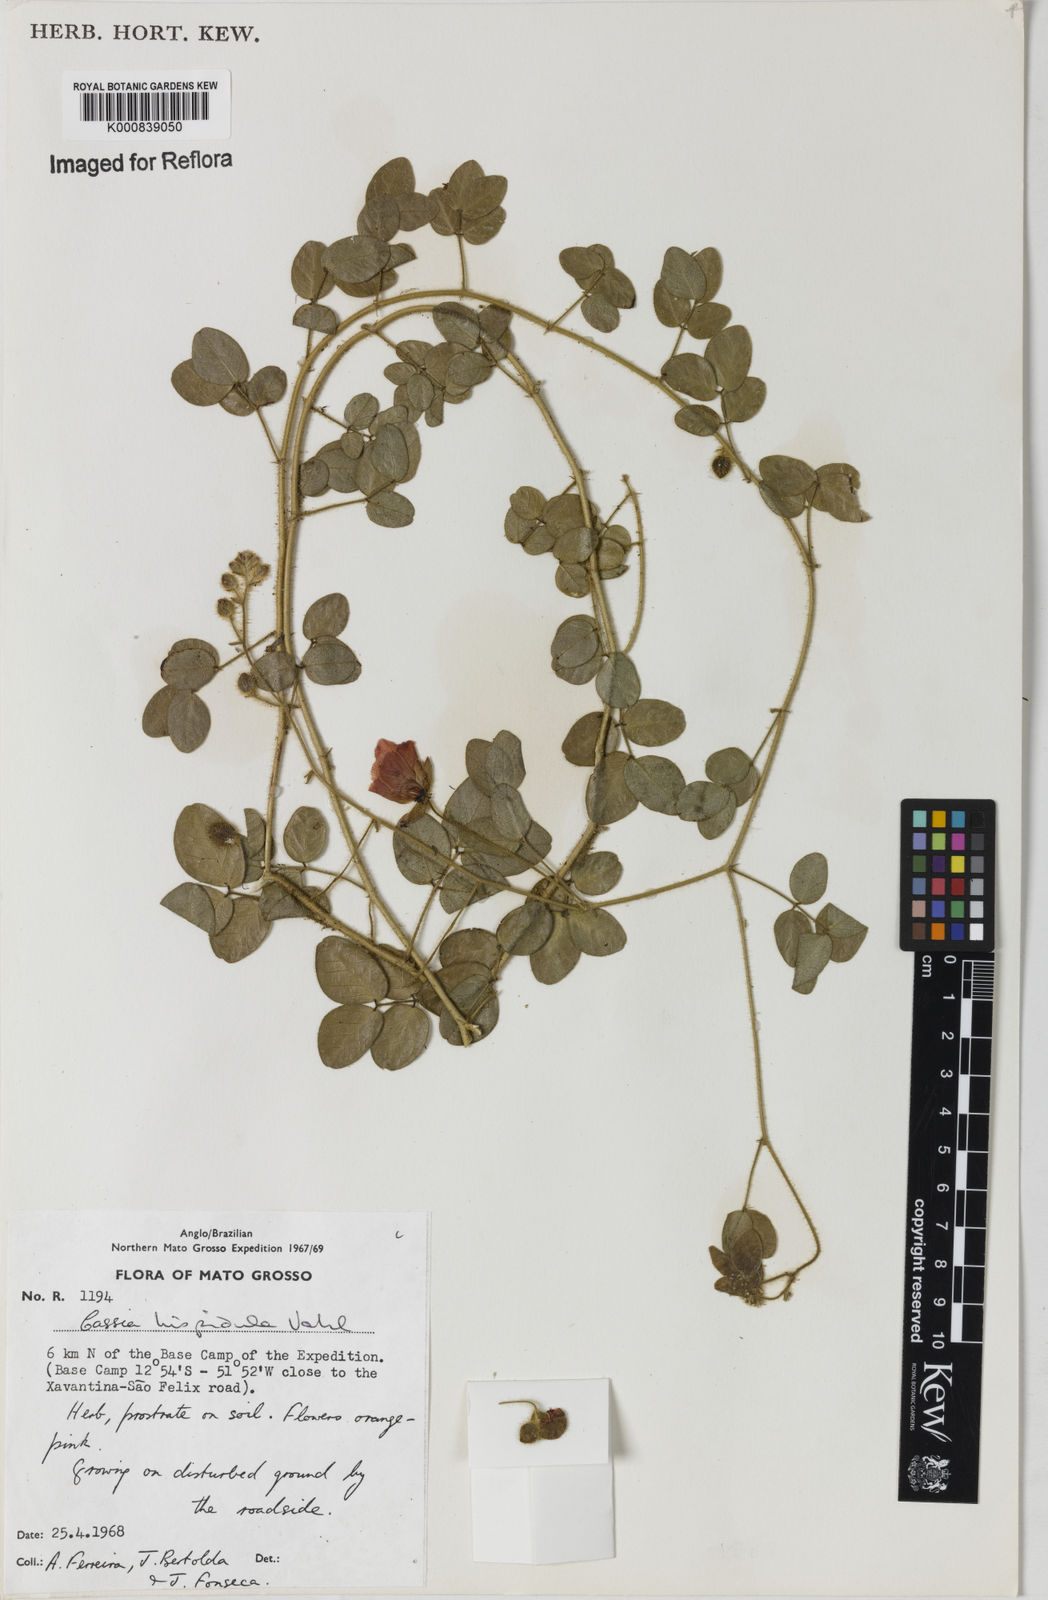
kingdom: Plantae
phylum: Tracheophyta
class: Magnoliopsida
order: Fabales
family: Fabaceae
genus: Chamaecrista
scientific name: Chamaecrista hispidula
